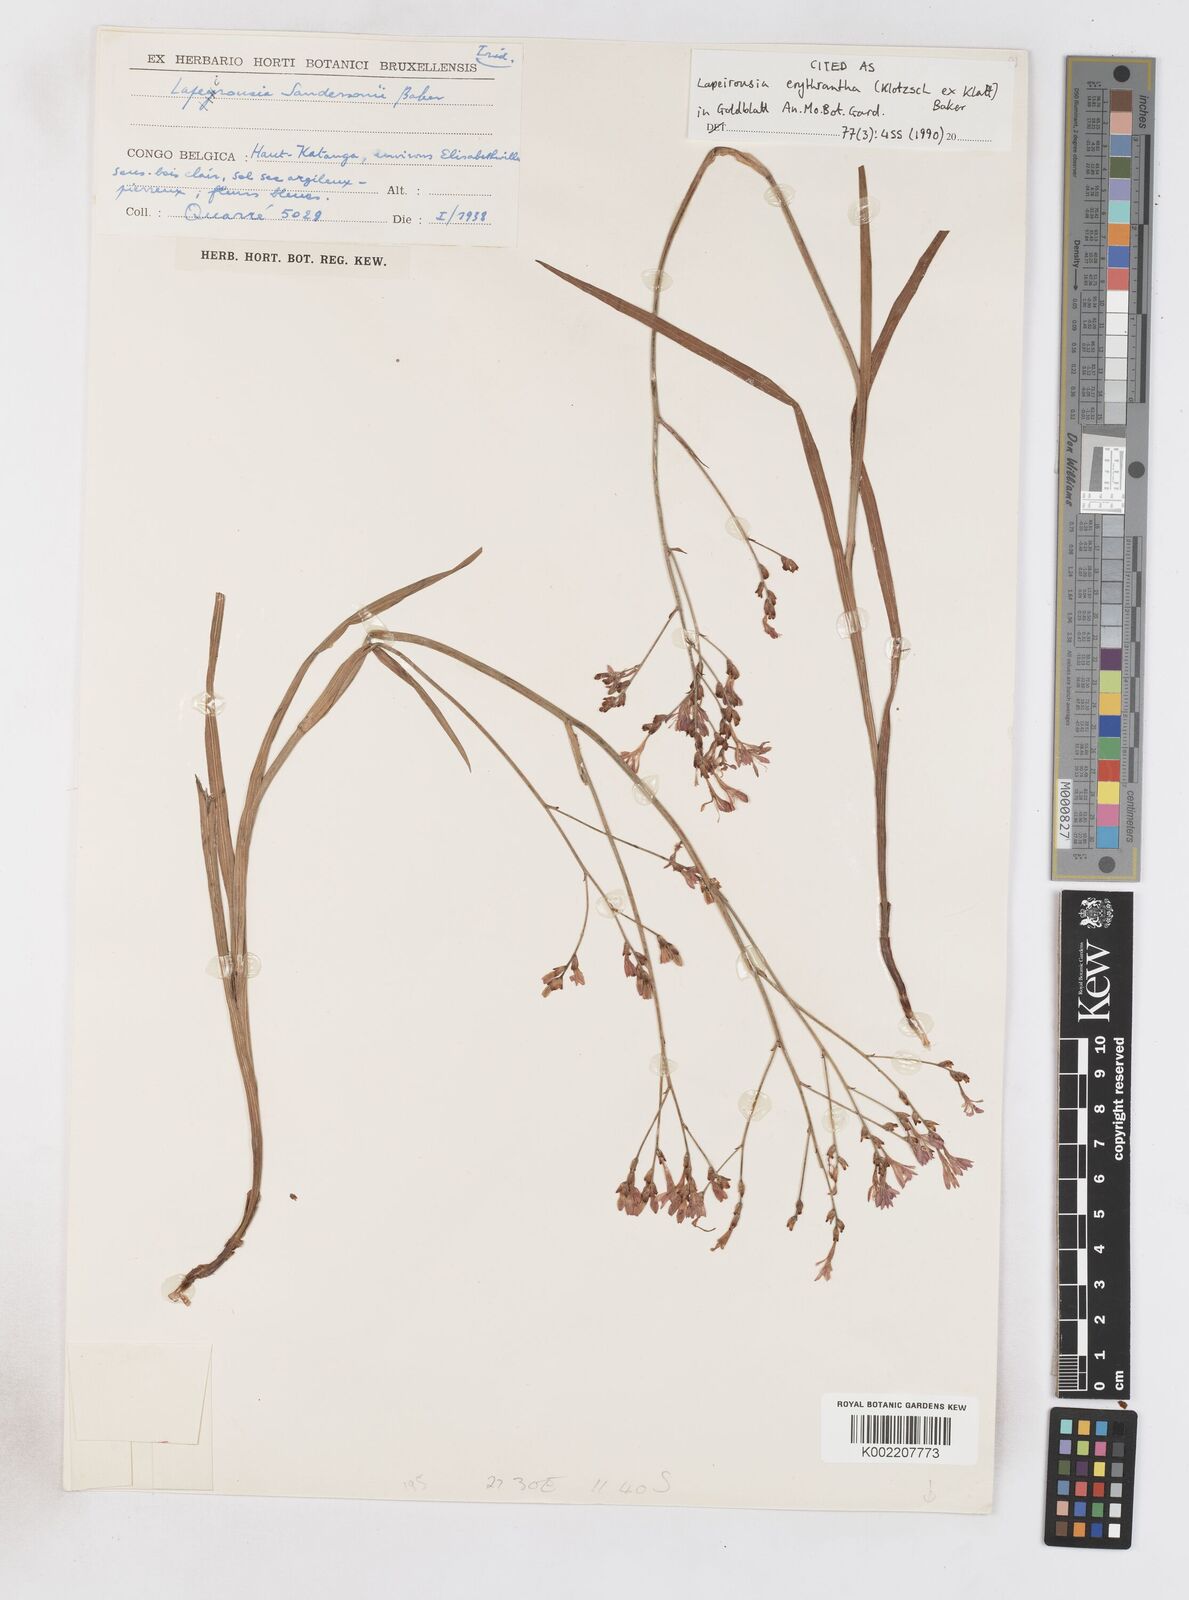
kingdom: Plantae
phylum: Tracheophyta
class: Liliopsida
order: Asparagales
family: Iridaceae
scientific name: Iridaceae
